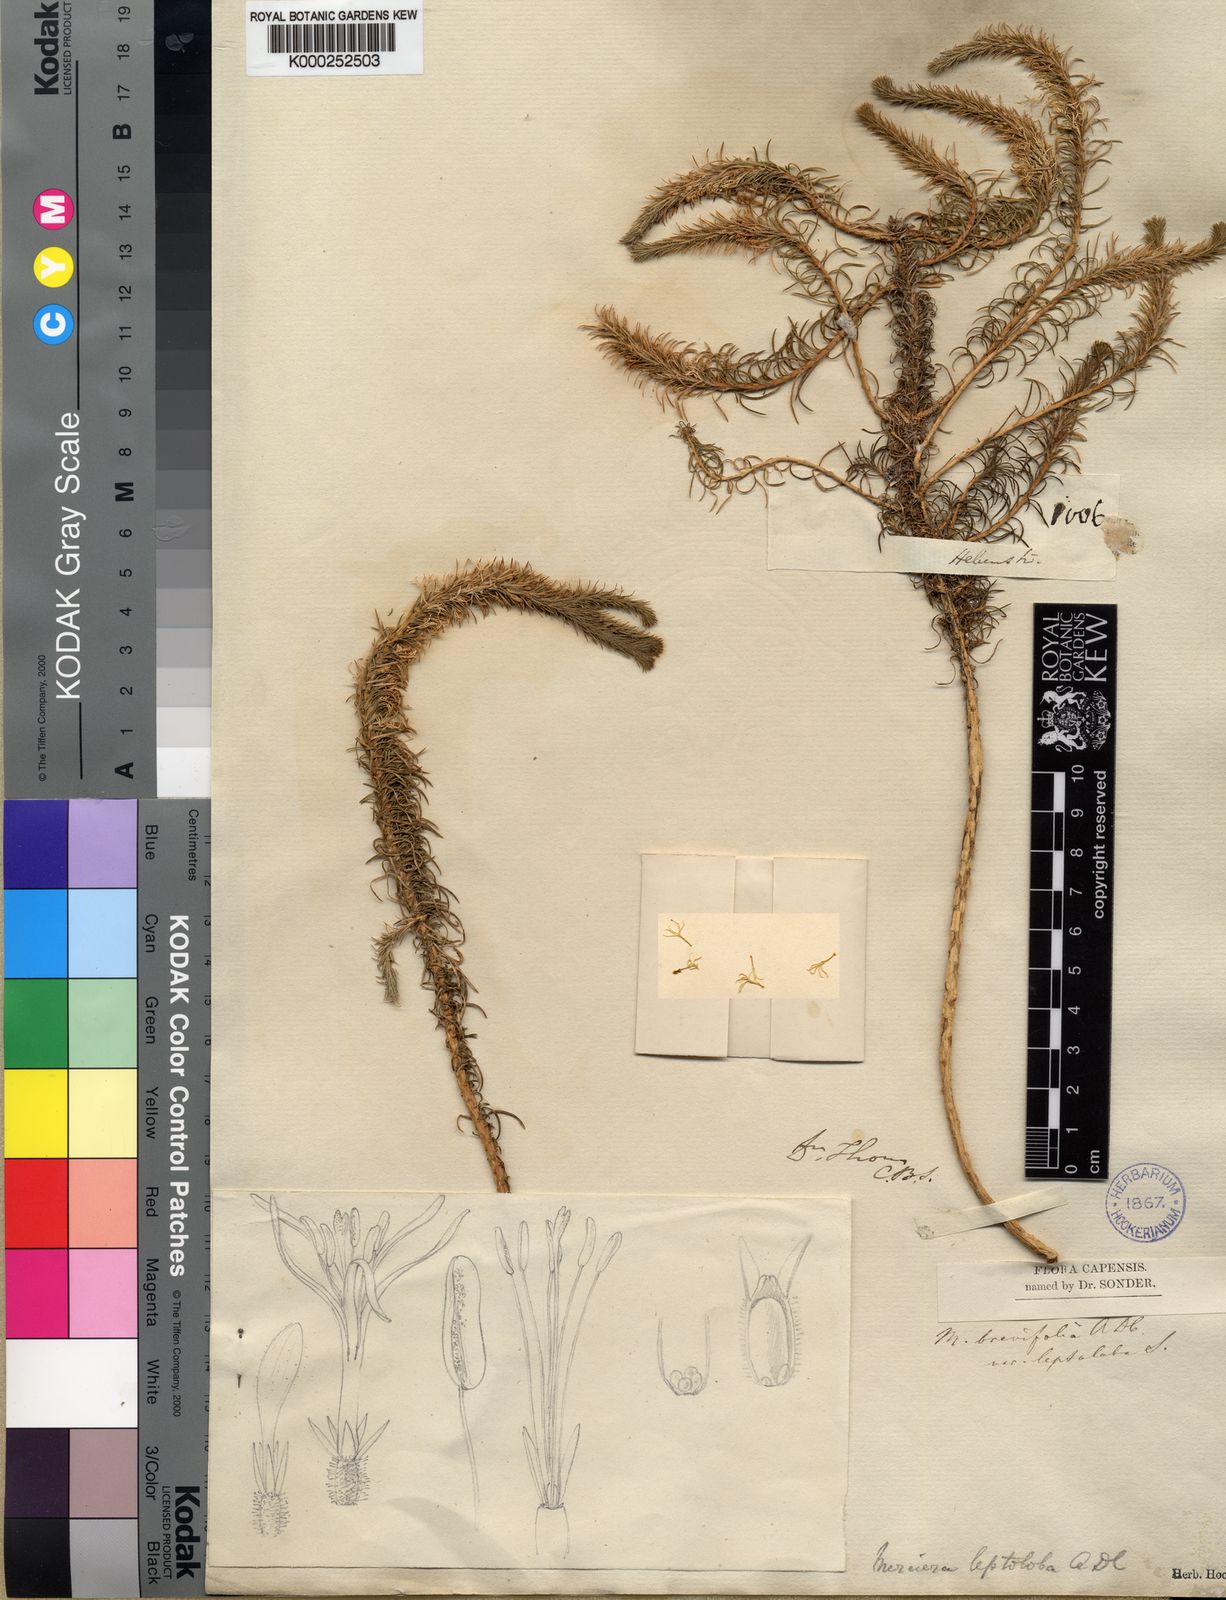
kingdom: Plantae
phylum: Tracheophyta
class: Magnoliopsida
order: Asterales
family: Campanulaceae
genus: Merciera
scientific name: Merciera brevifolia
